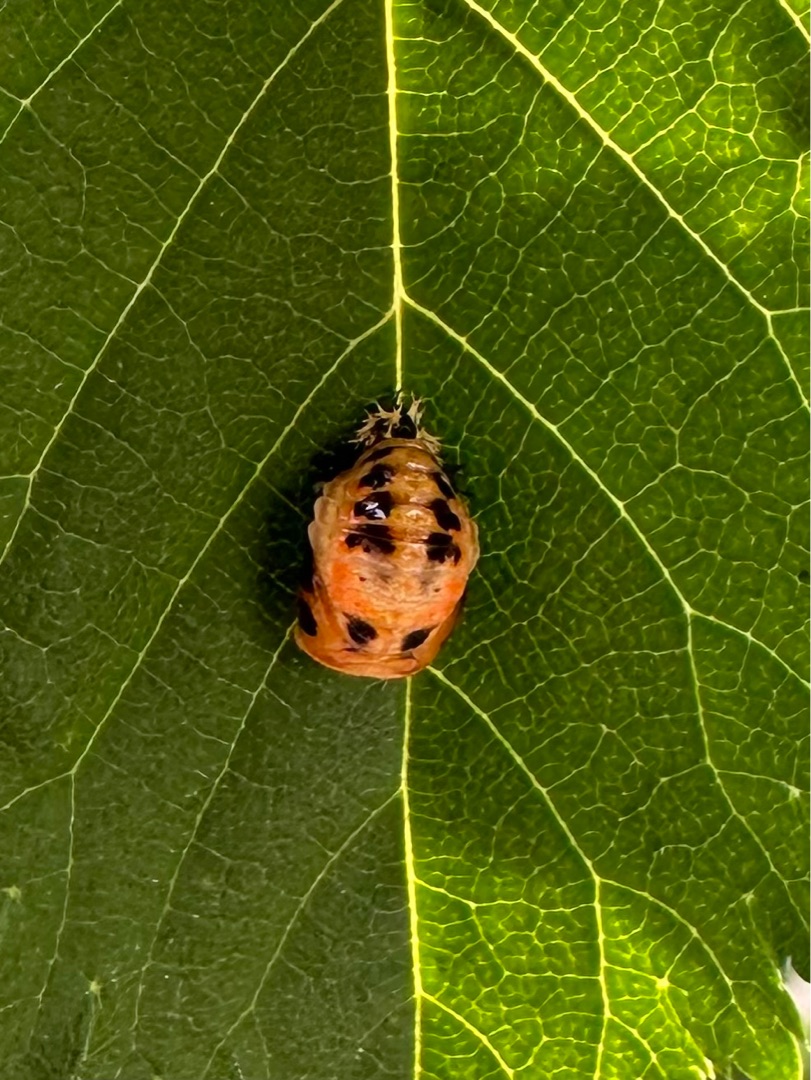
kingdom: Animalia
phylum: Arthropoda
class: Insecta
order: Coleoptera
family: Coccinellidae
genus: Harmonia
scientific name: Harmonia axyridis
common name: Harlekinmariehøne
